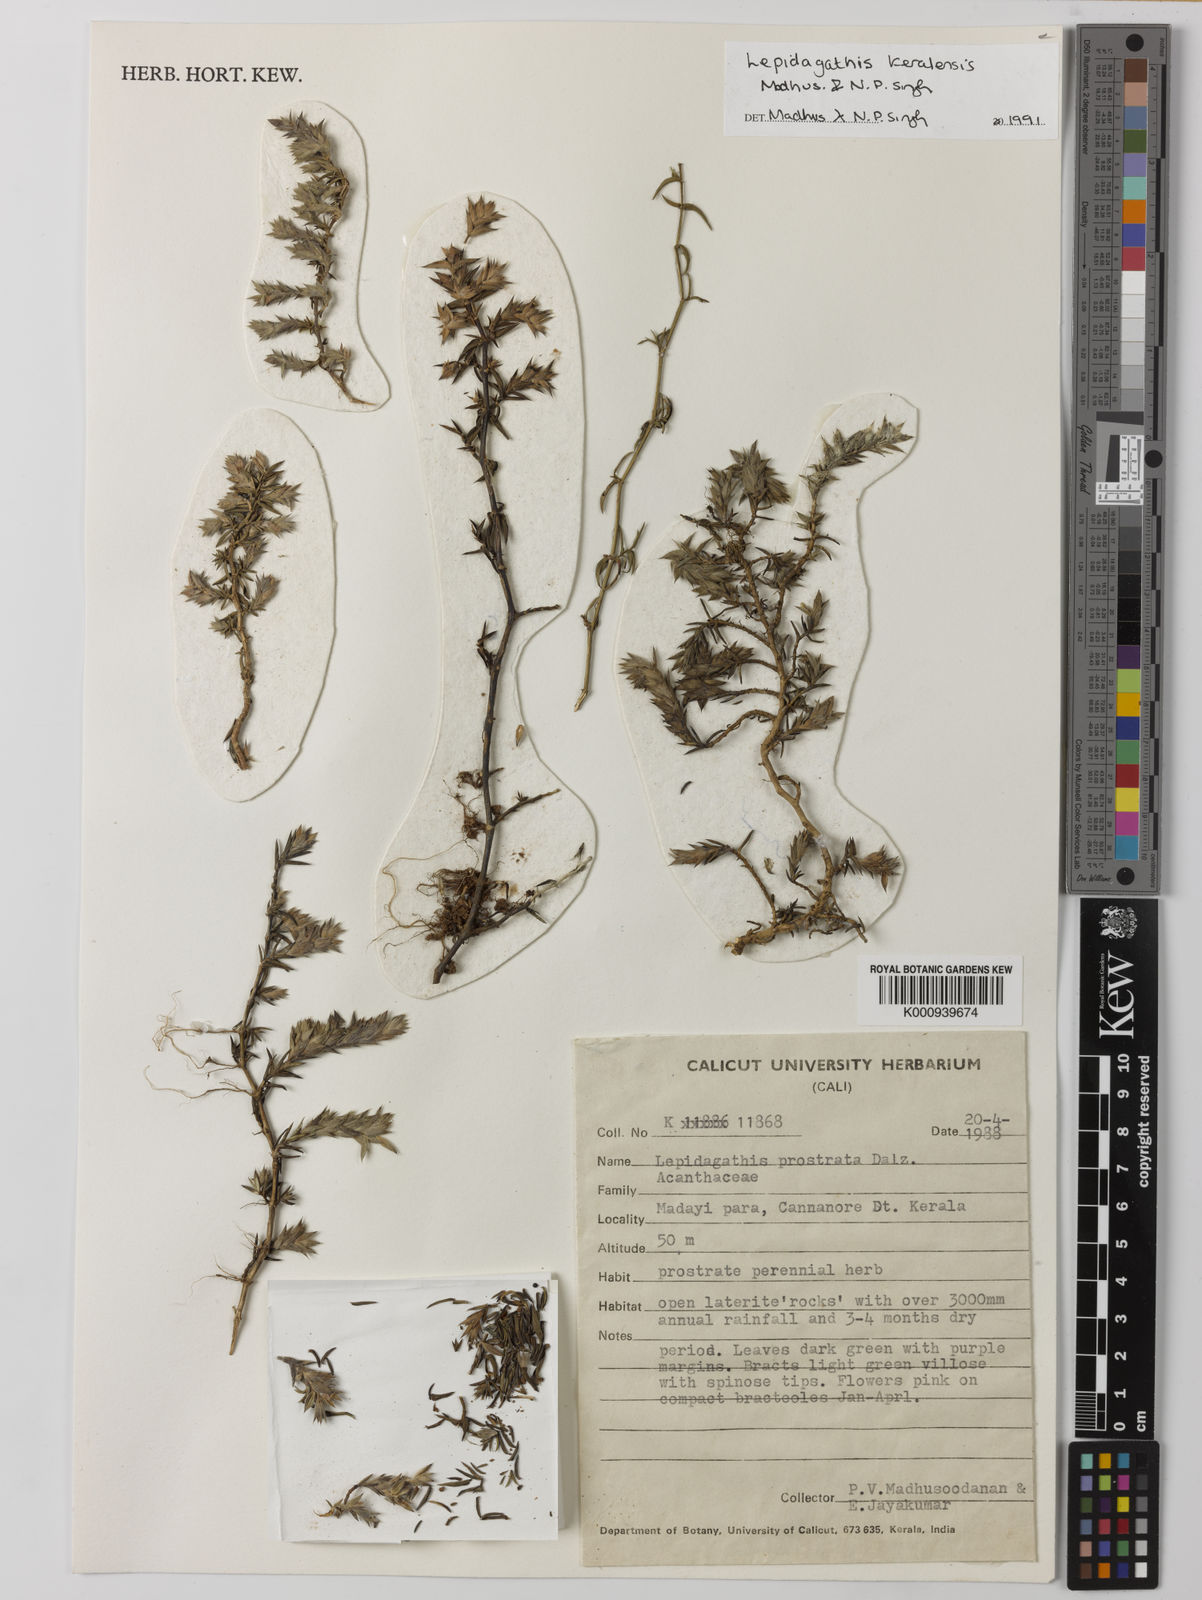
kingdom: Plantae
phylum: Tracheophyta
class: Magnoliopsida
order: Lamiales
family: Acanthaceae
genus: Lepidagathis
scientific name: Lepidagathis keralensis
